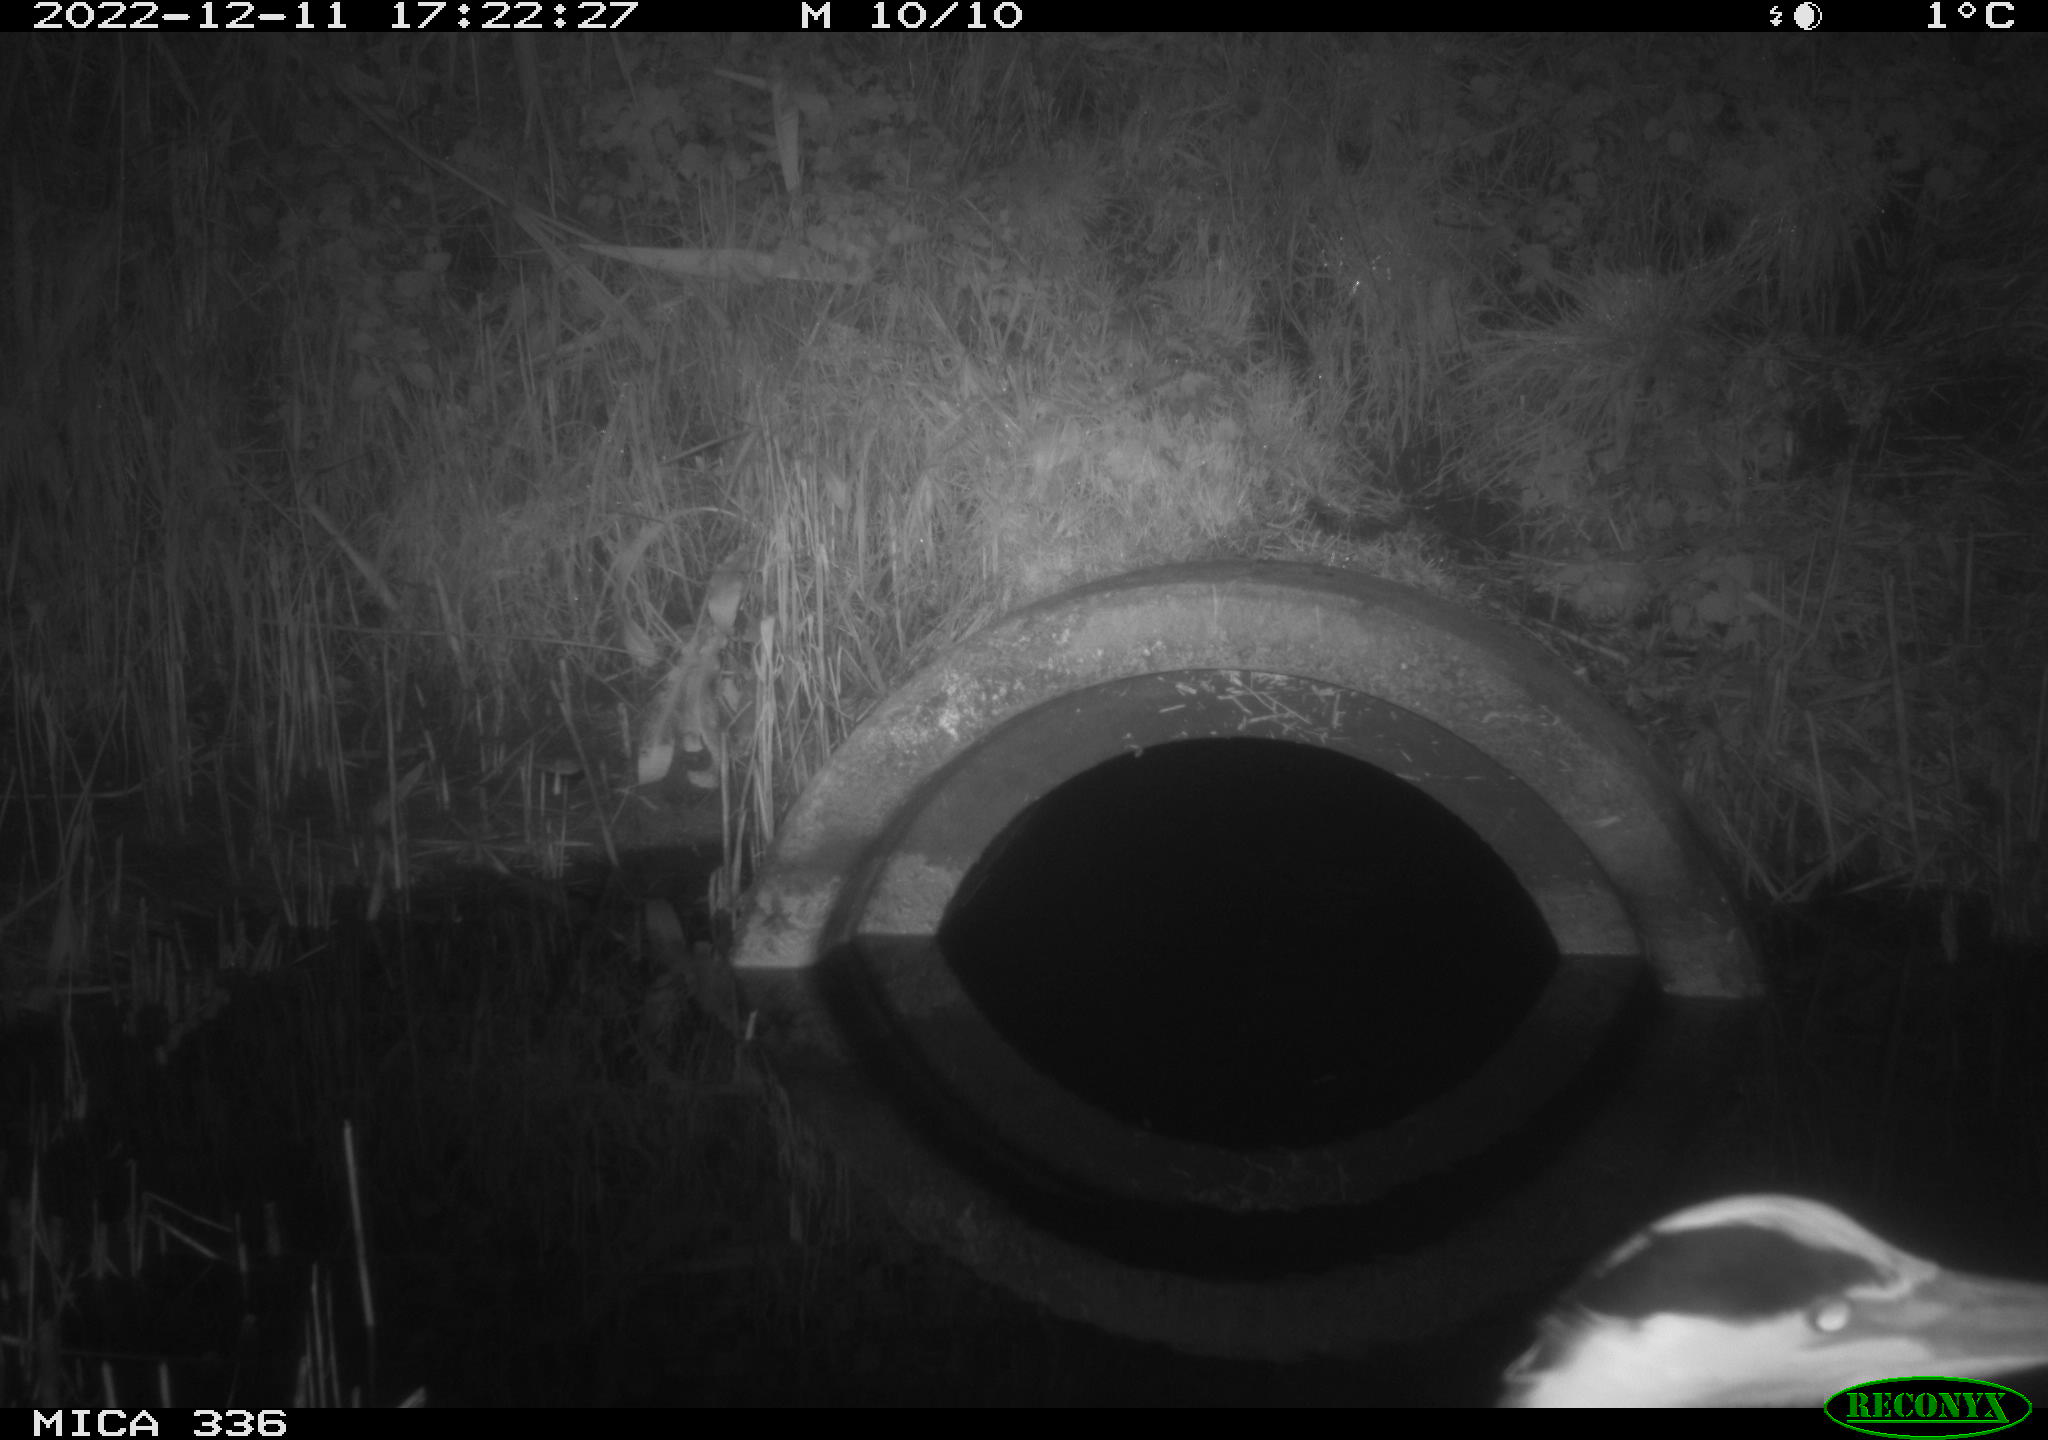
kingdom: Animalia
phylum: Chordata
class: Aves
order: Pelecaniformes
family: Ardeidae
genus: Ardea
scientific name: Ardea cinerea
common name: Grey heron
